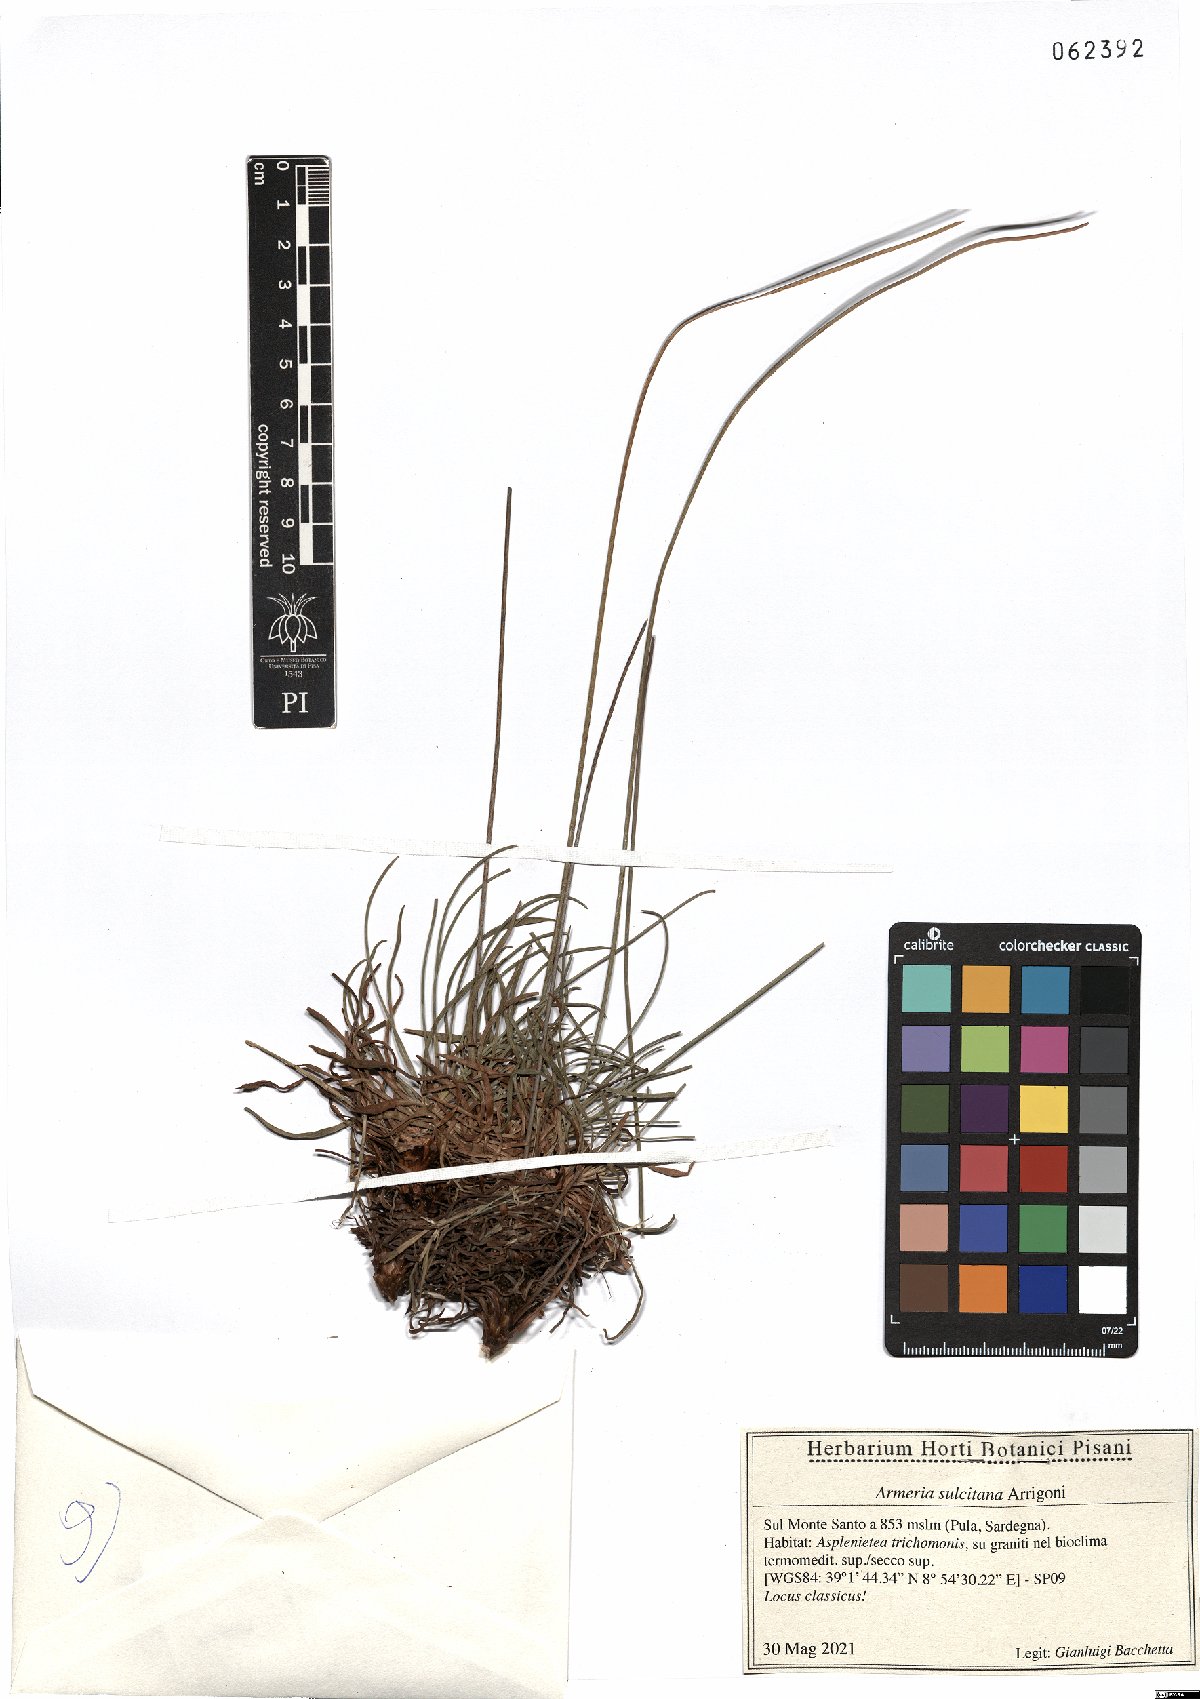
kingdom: Plantae
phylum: Tracheophyta
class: Magnoliopsida
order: Caryophyllales
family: Plumbaginaceae
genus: Armeria
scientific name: Armeria sulcitana
